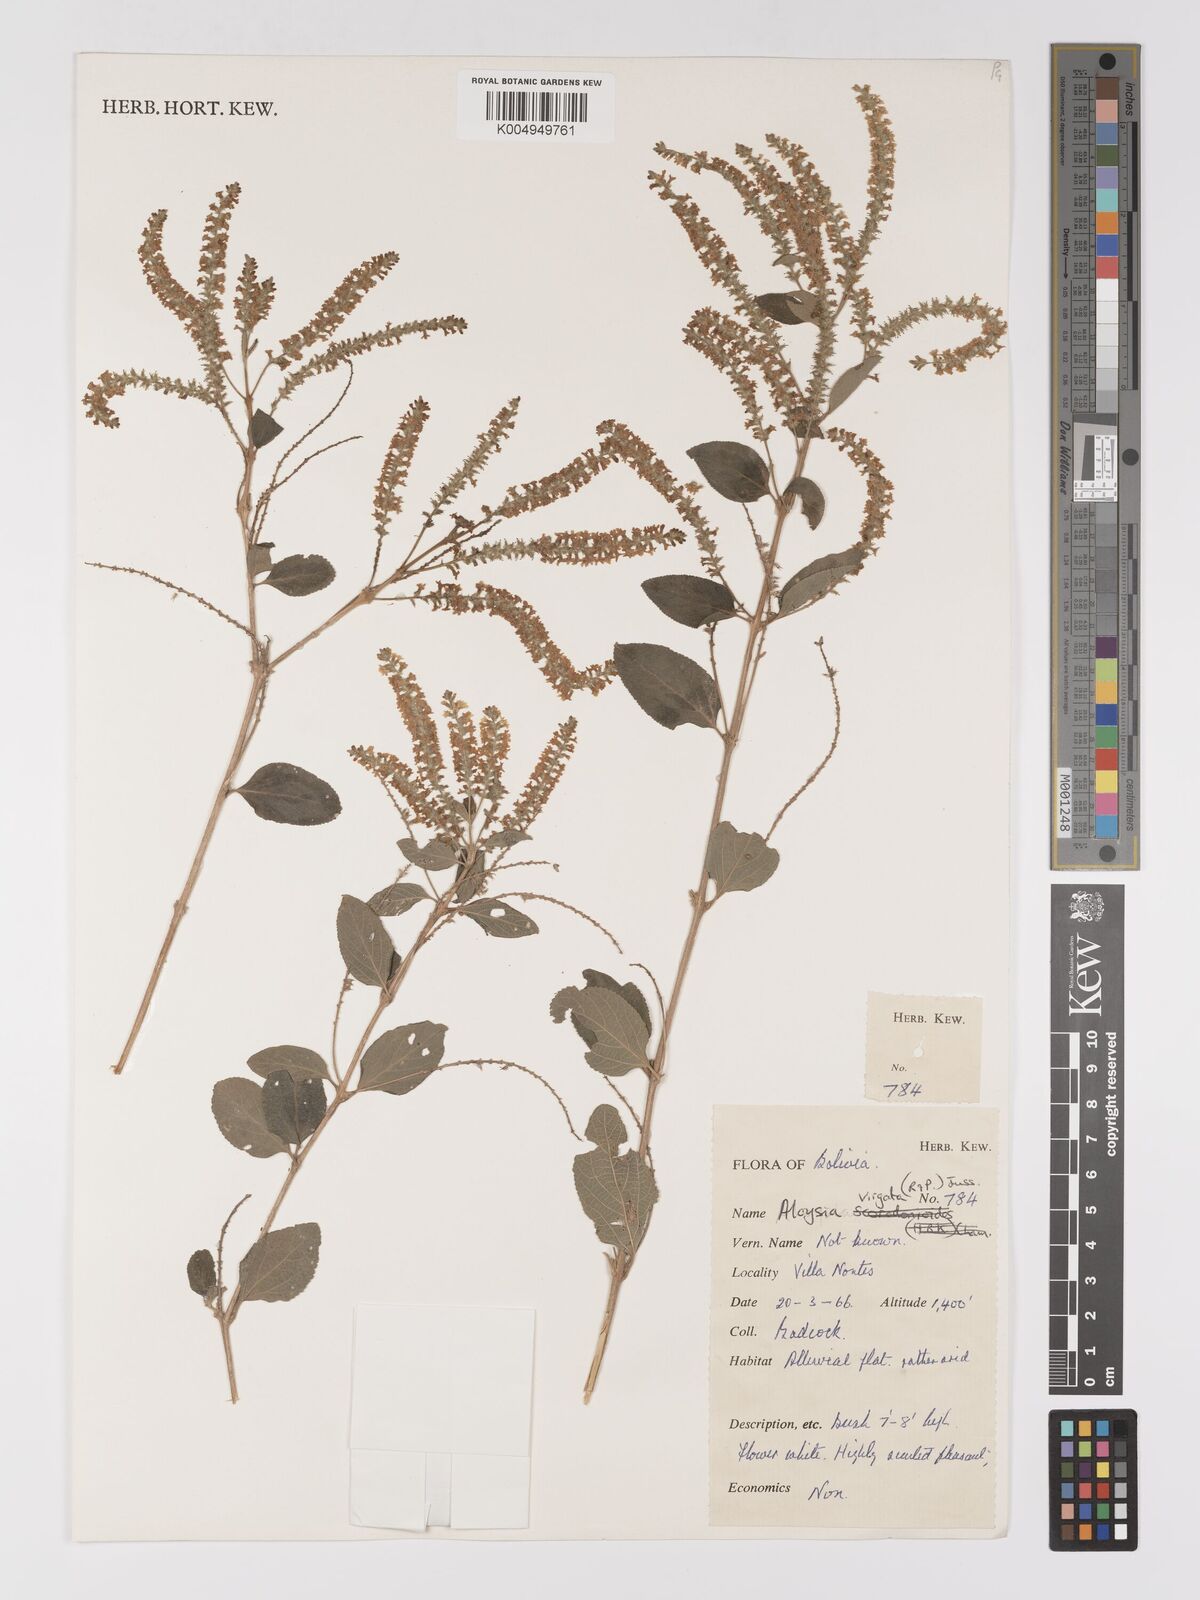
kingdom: Plantae
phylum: Tracheophyta
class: Magnoliopsida
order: Lamiales
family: Verbenaceae
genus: Aloysia
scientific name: Aloysia virgata
